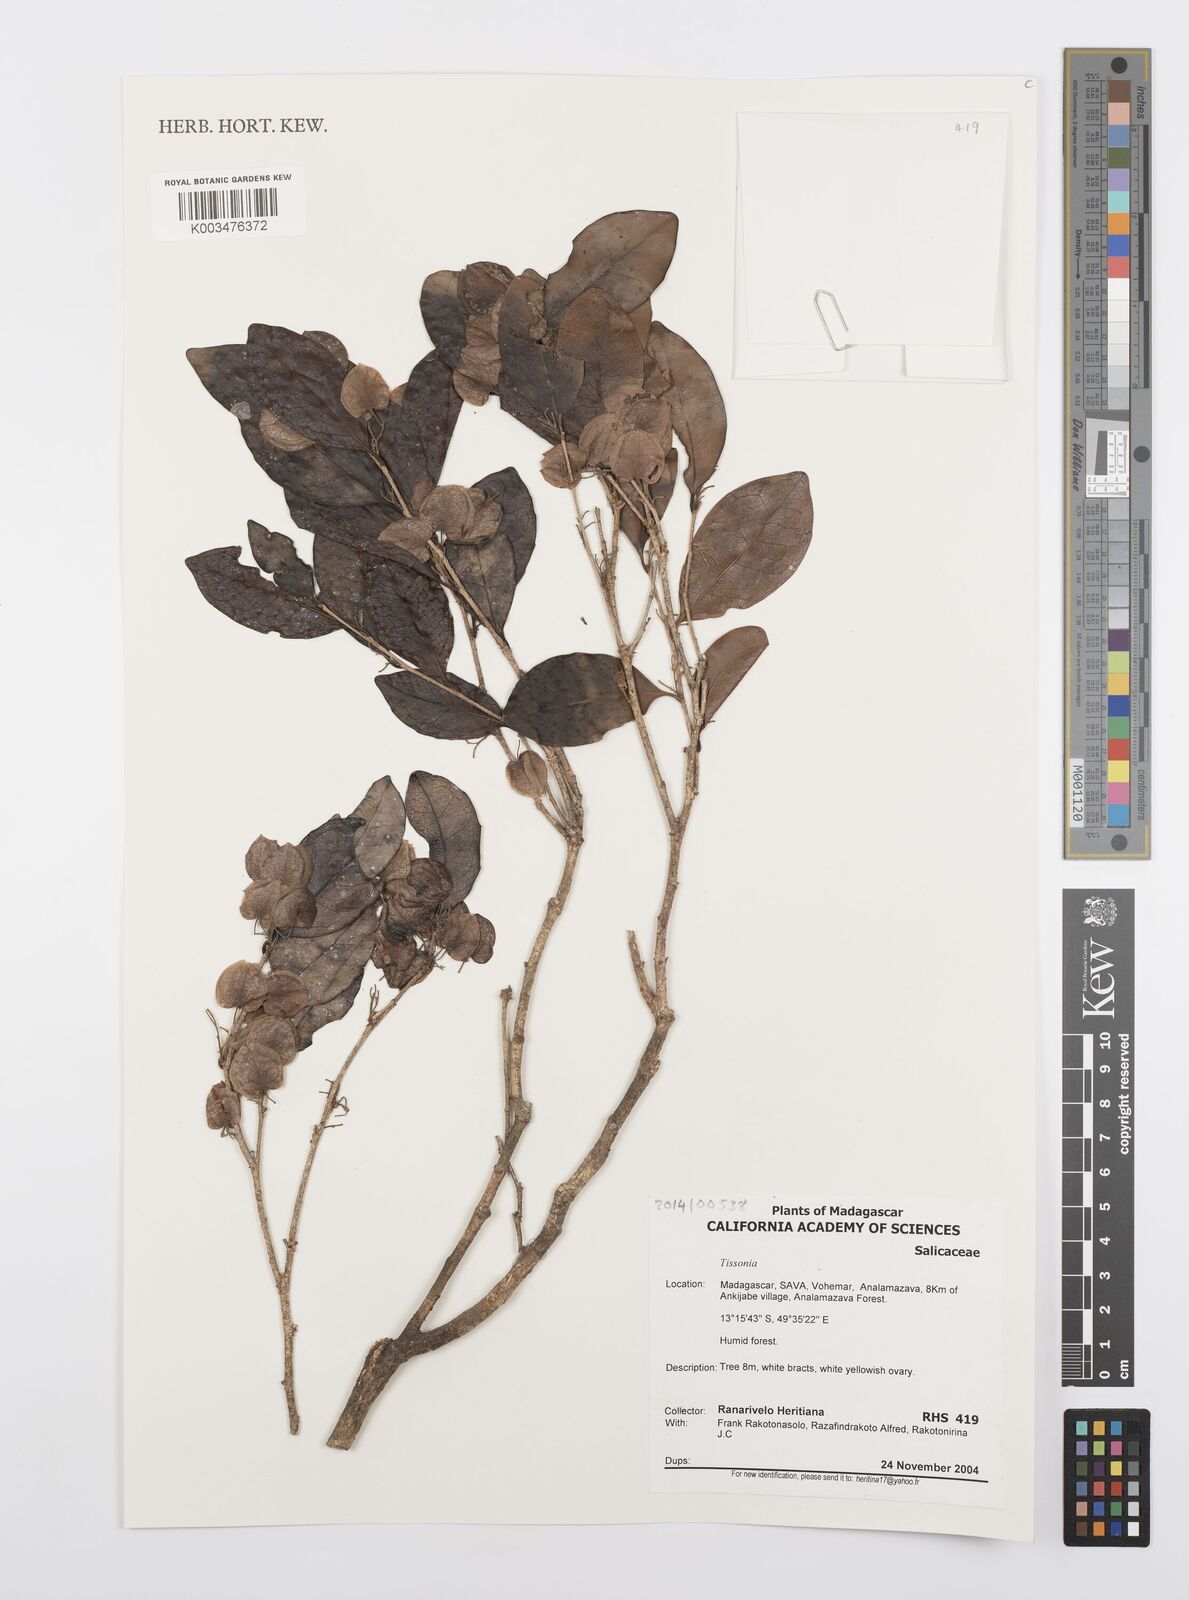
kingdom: Plantae
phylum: Tracheophyta
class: Magnoliopsida
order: Malpighiales
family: Salicaceae
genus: Tisonia
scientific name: Tisonia
